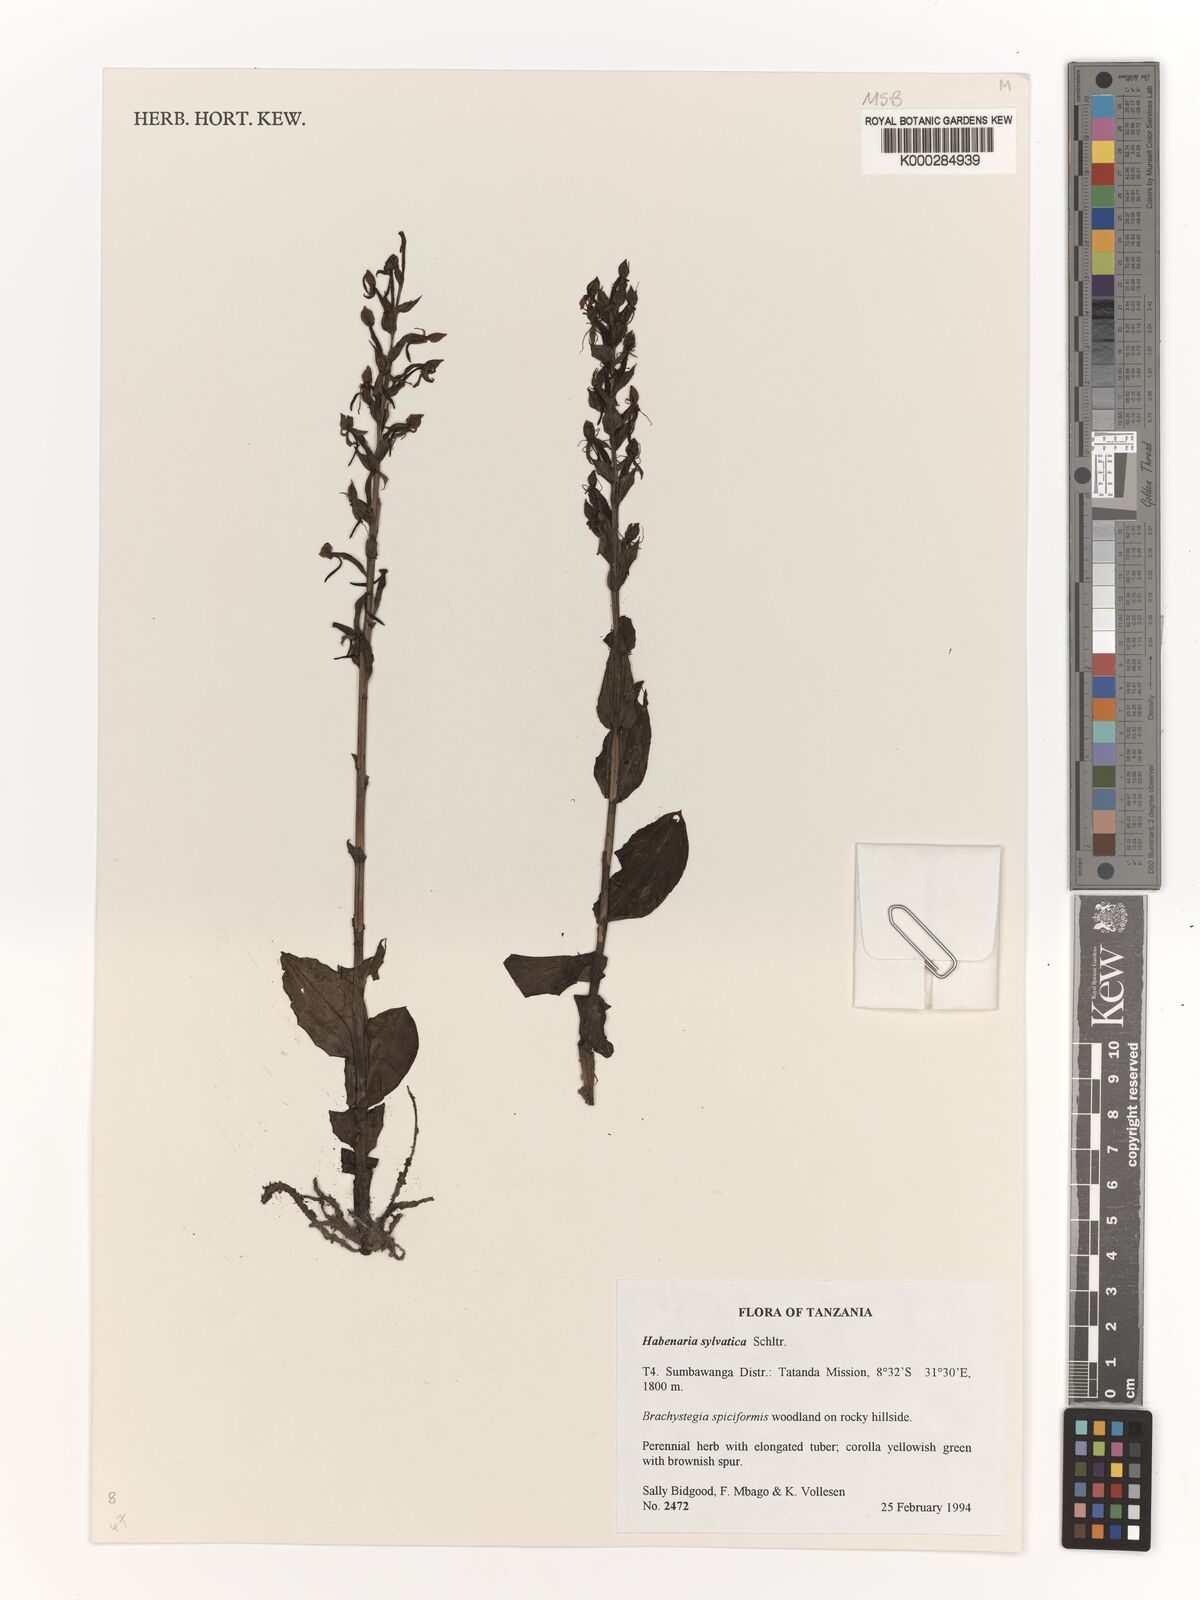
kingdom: Plantae
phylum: Tracheophyta
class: Liliopsida
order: Asparagales
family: Orchidaceae
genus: Habenaria
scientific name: Habenaria silvatica
